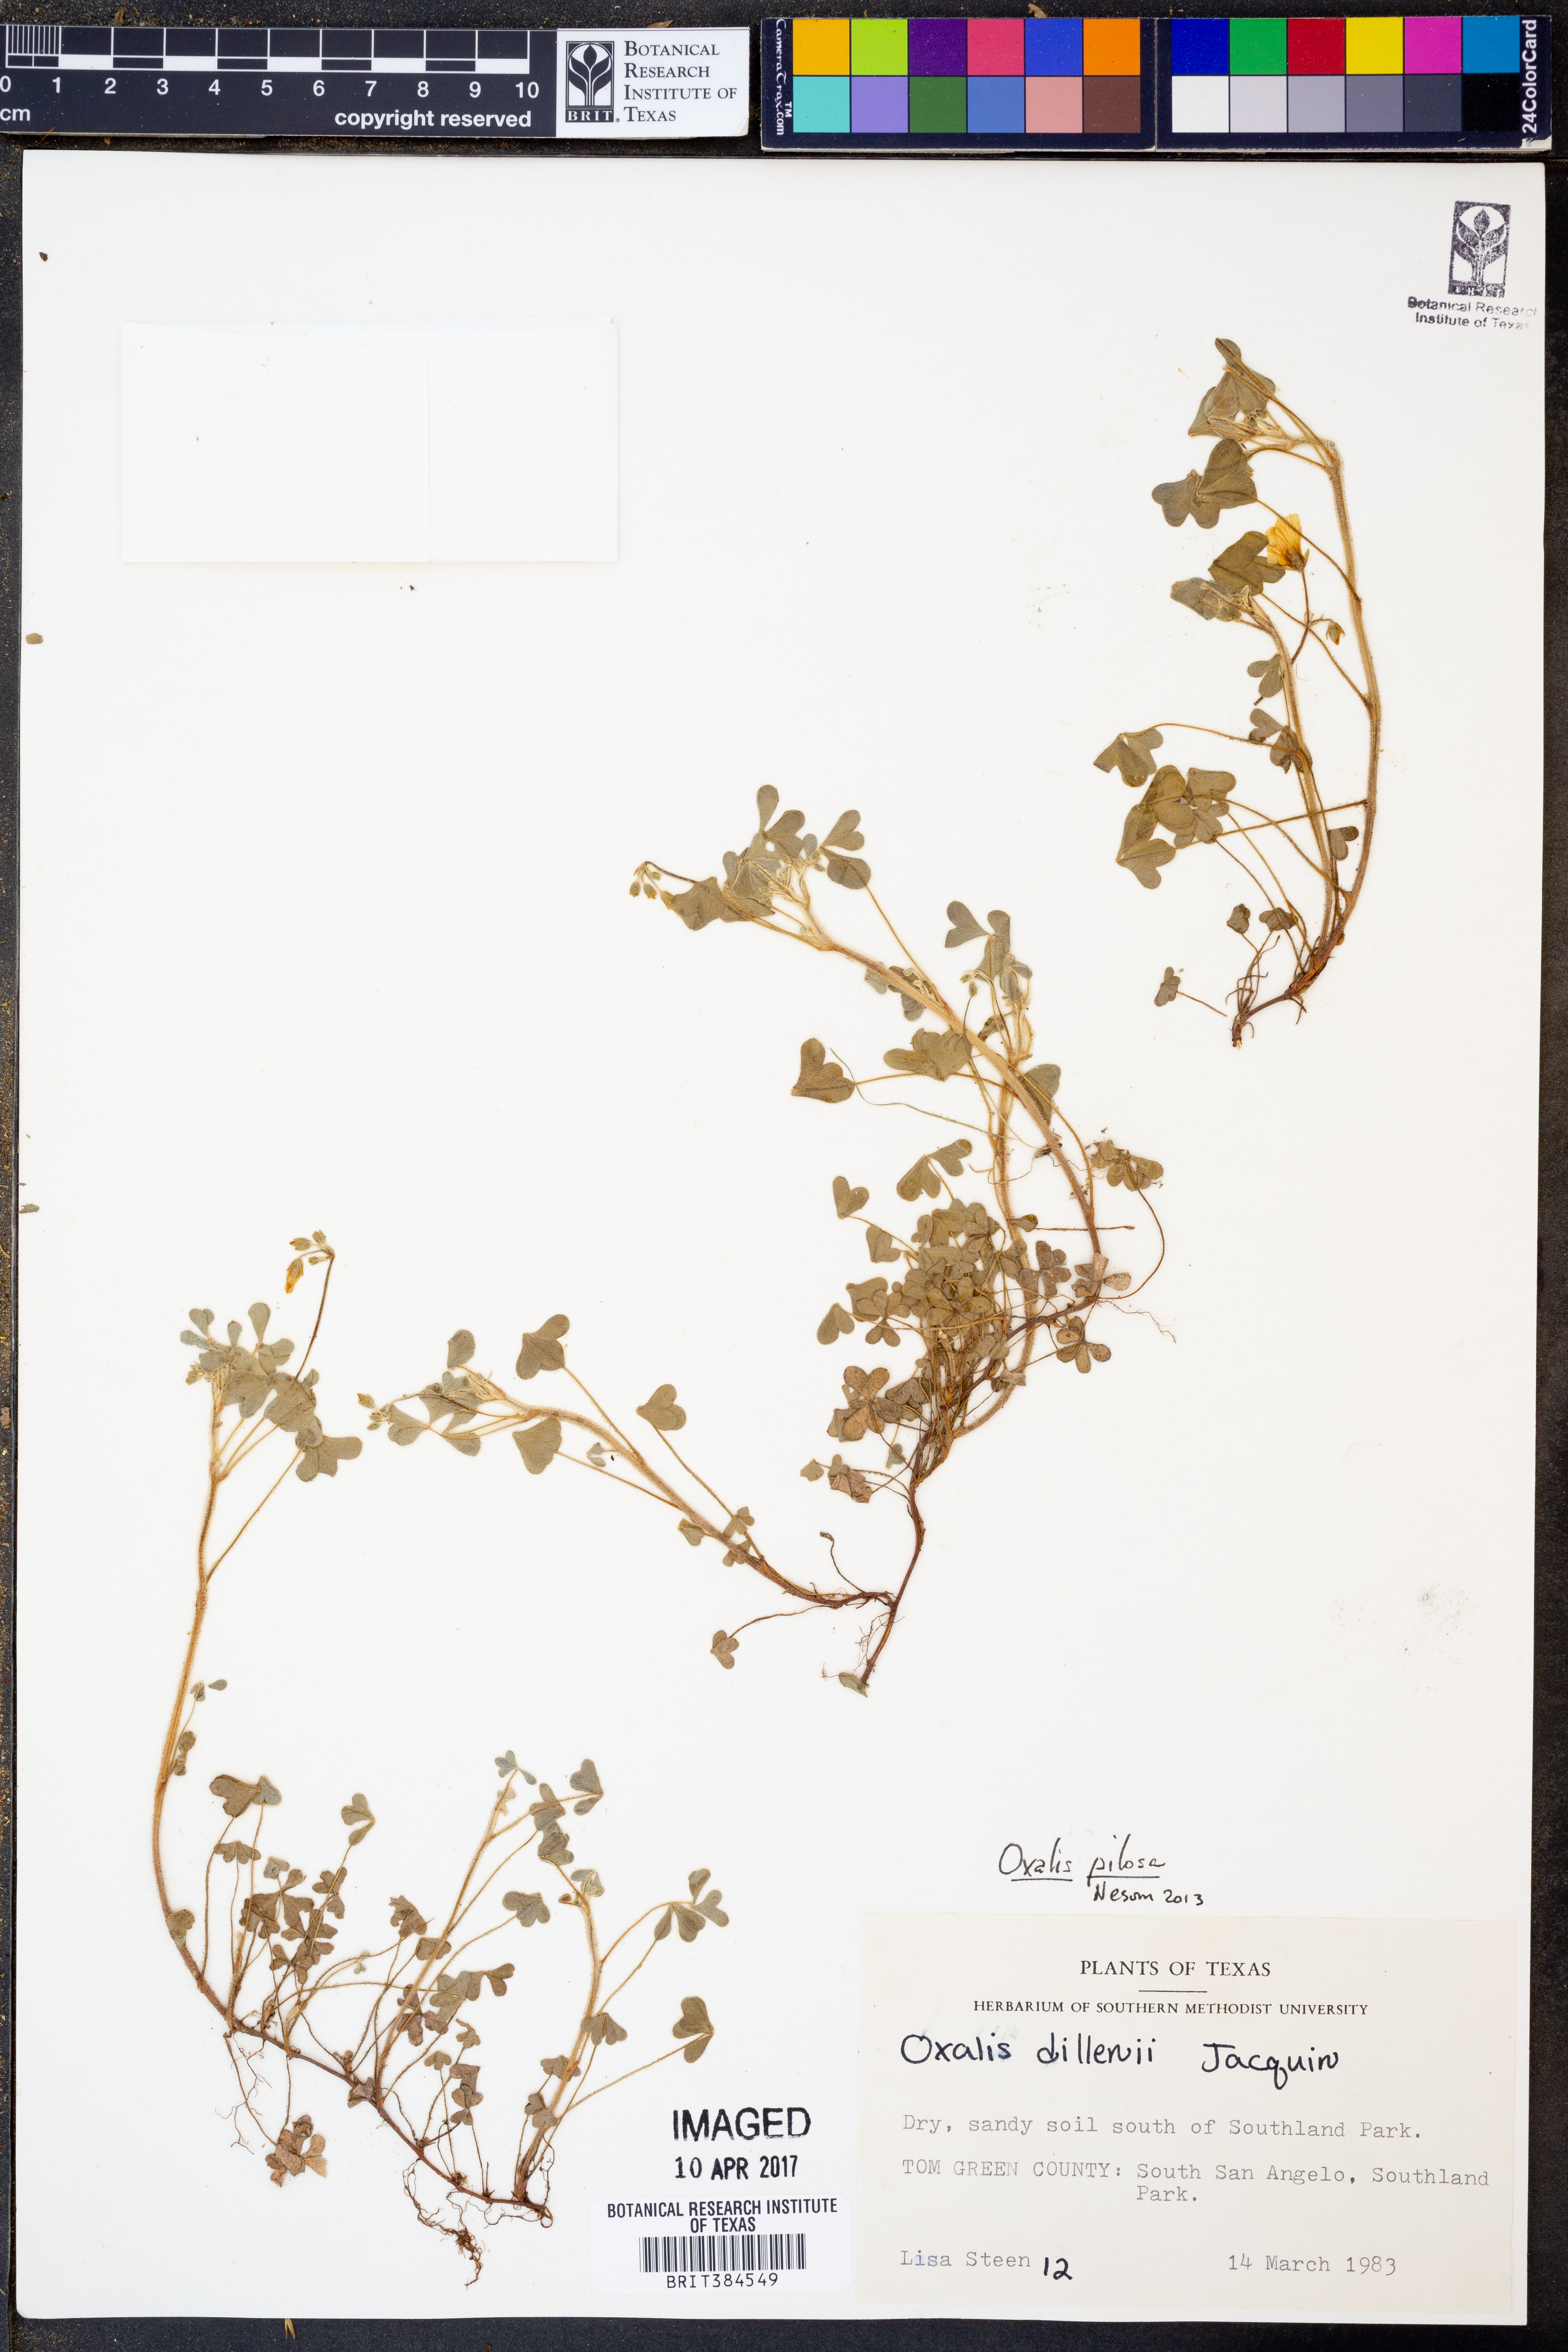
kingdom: Plantae
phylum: Tracheophyta
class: Magnoliopsida
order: Oxalidales
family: Oxalidaceae
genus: Oxalis
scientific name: Oxalis pilosa
